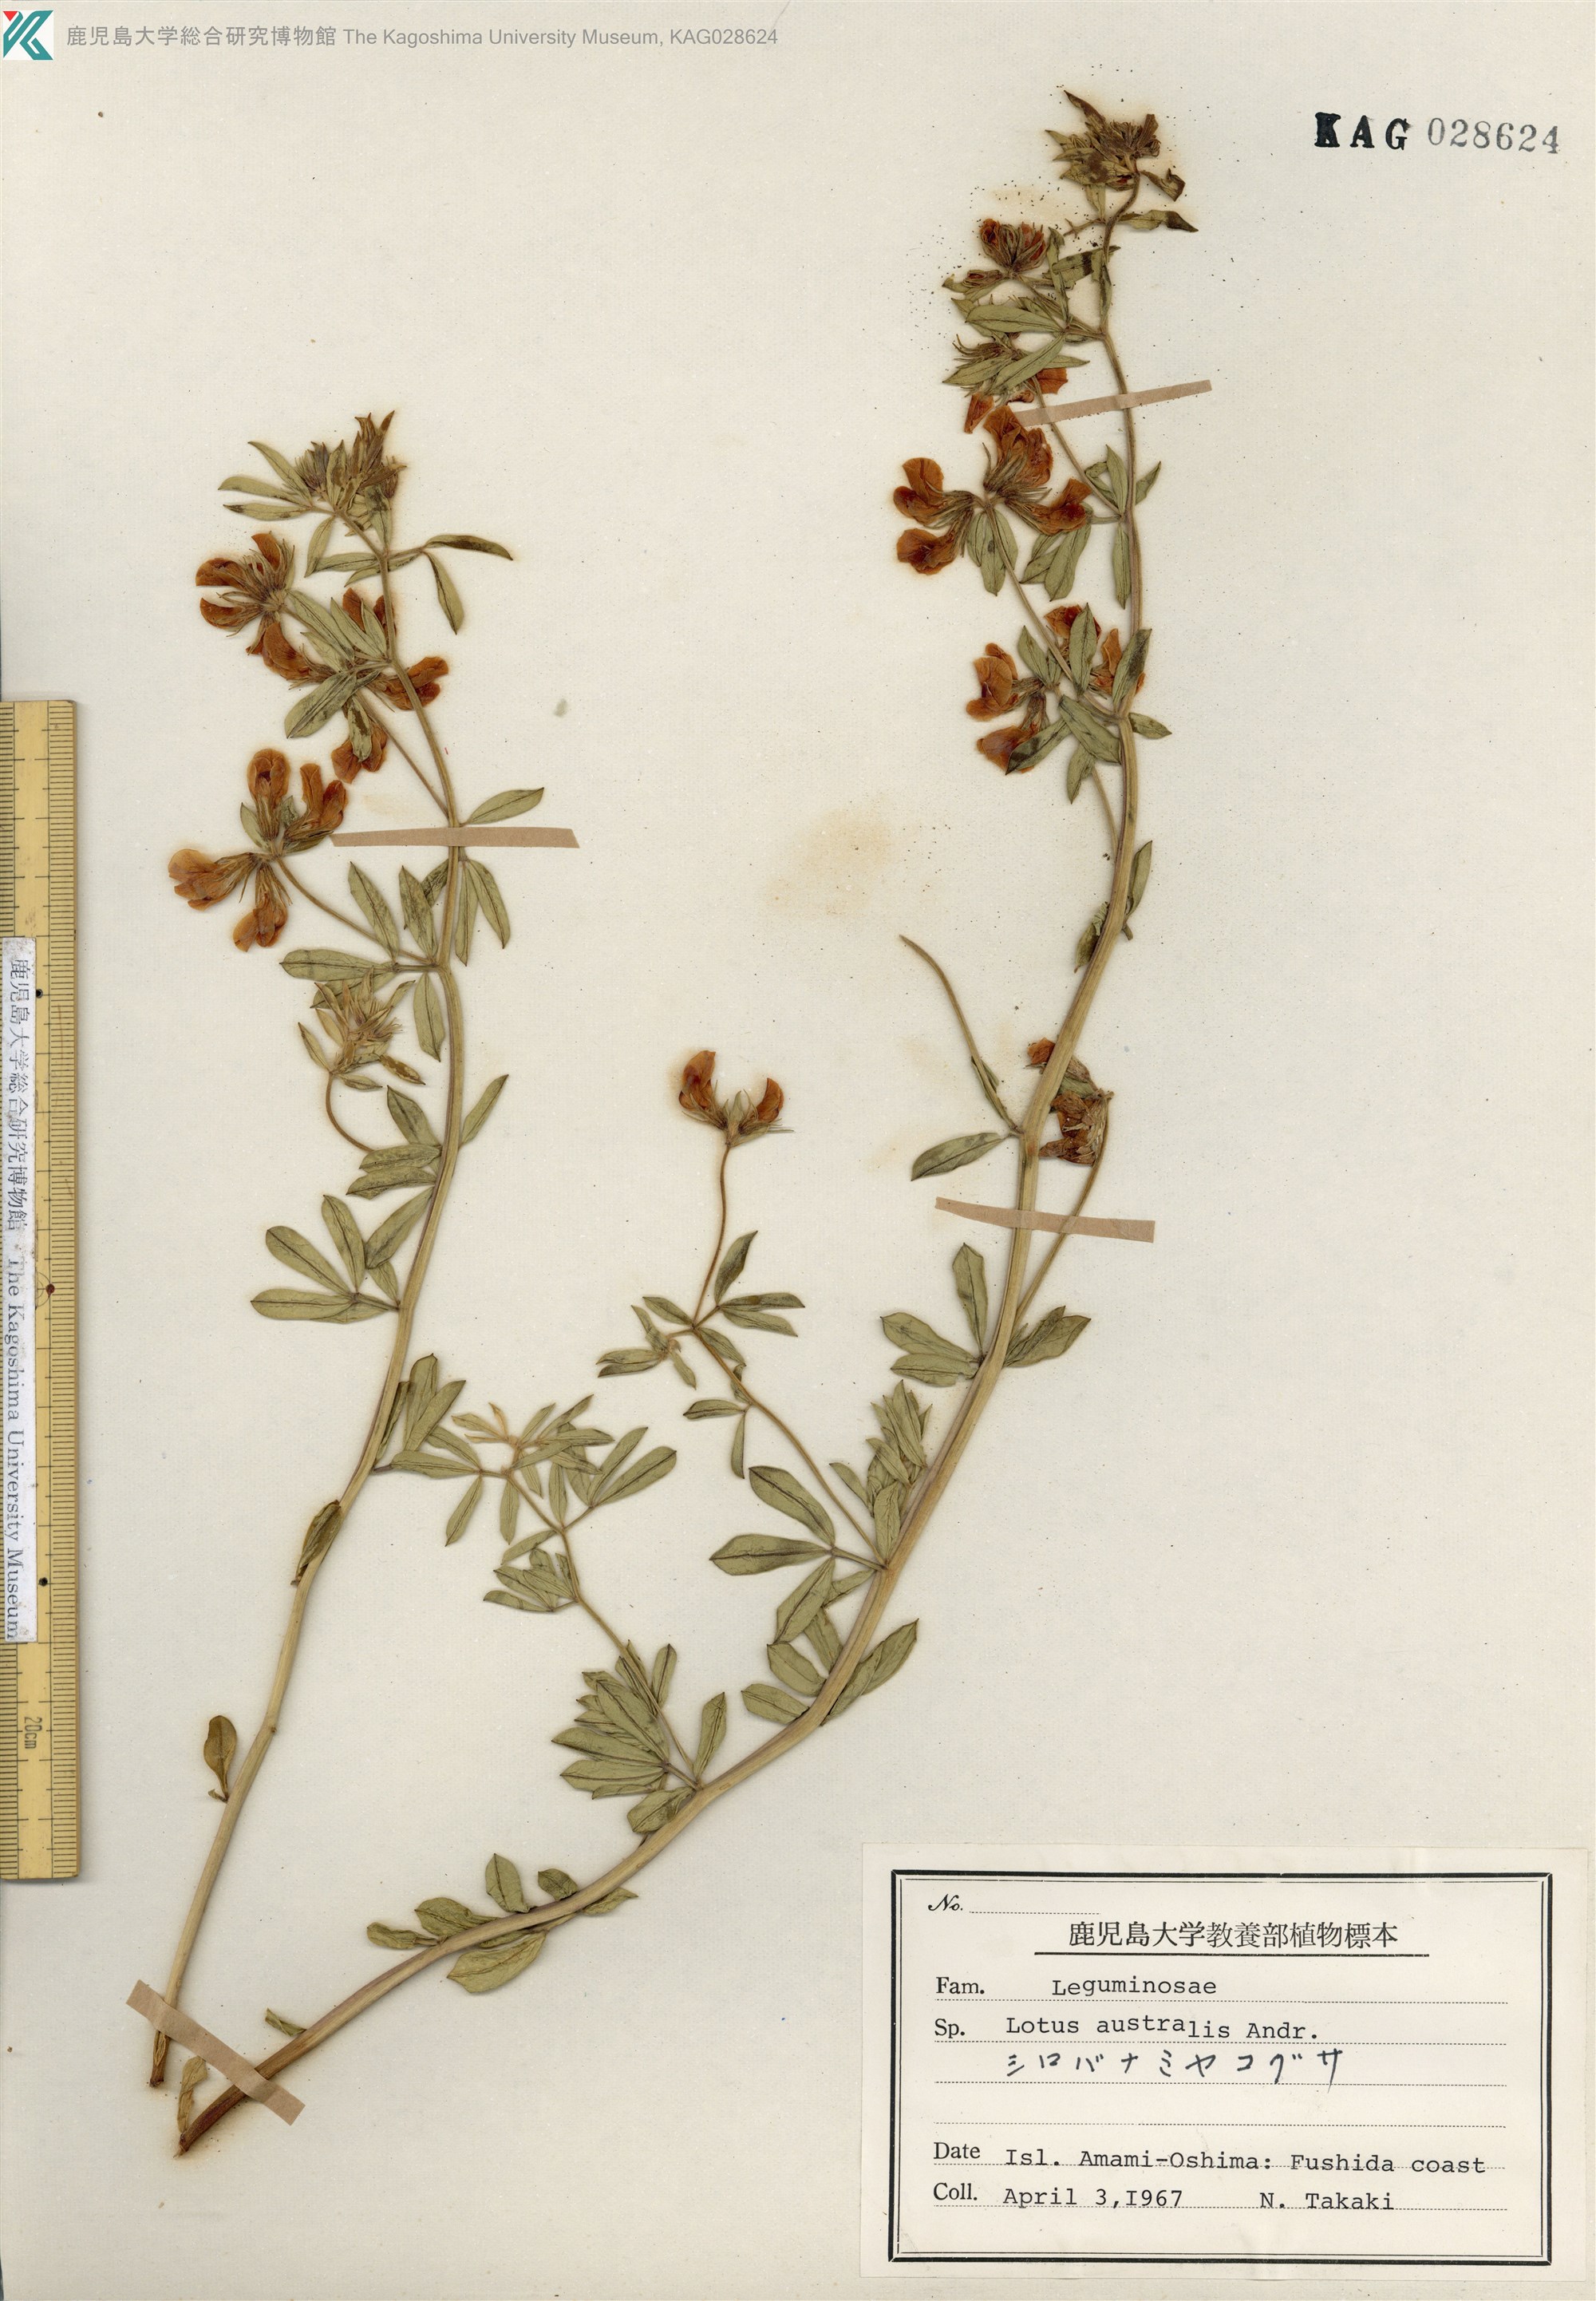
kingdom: Plantae
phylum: Tracheophyta
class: Magnoliopsida
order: Fabales
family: Fabaceae
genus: Lotus
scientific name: Lotus taitungensis
